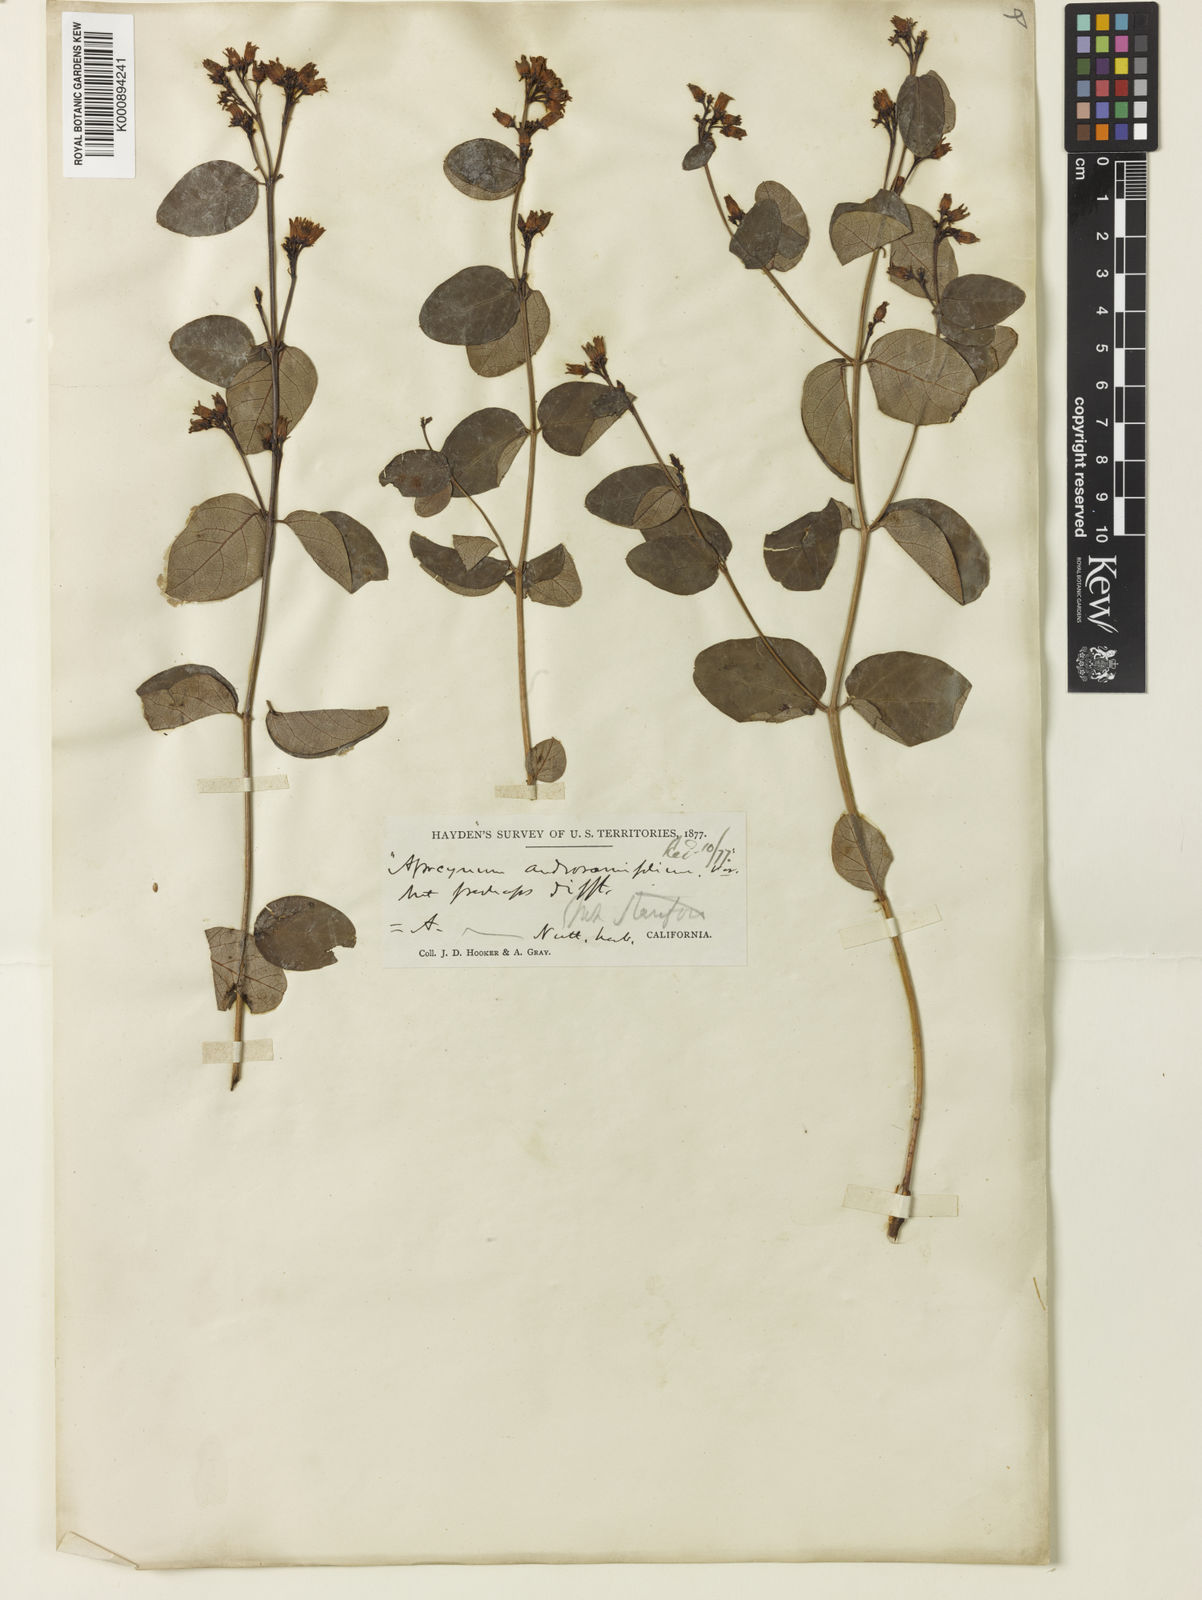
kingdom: Plantae
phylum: Tracheophyta
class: Magnoliopsida
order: Gentianales
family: Apocynaceae
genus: Apocynum
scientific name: Apocynum androsaemifolium
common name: Spreading dogbane
